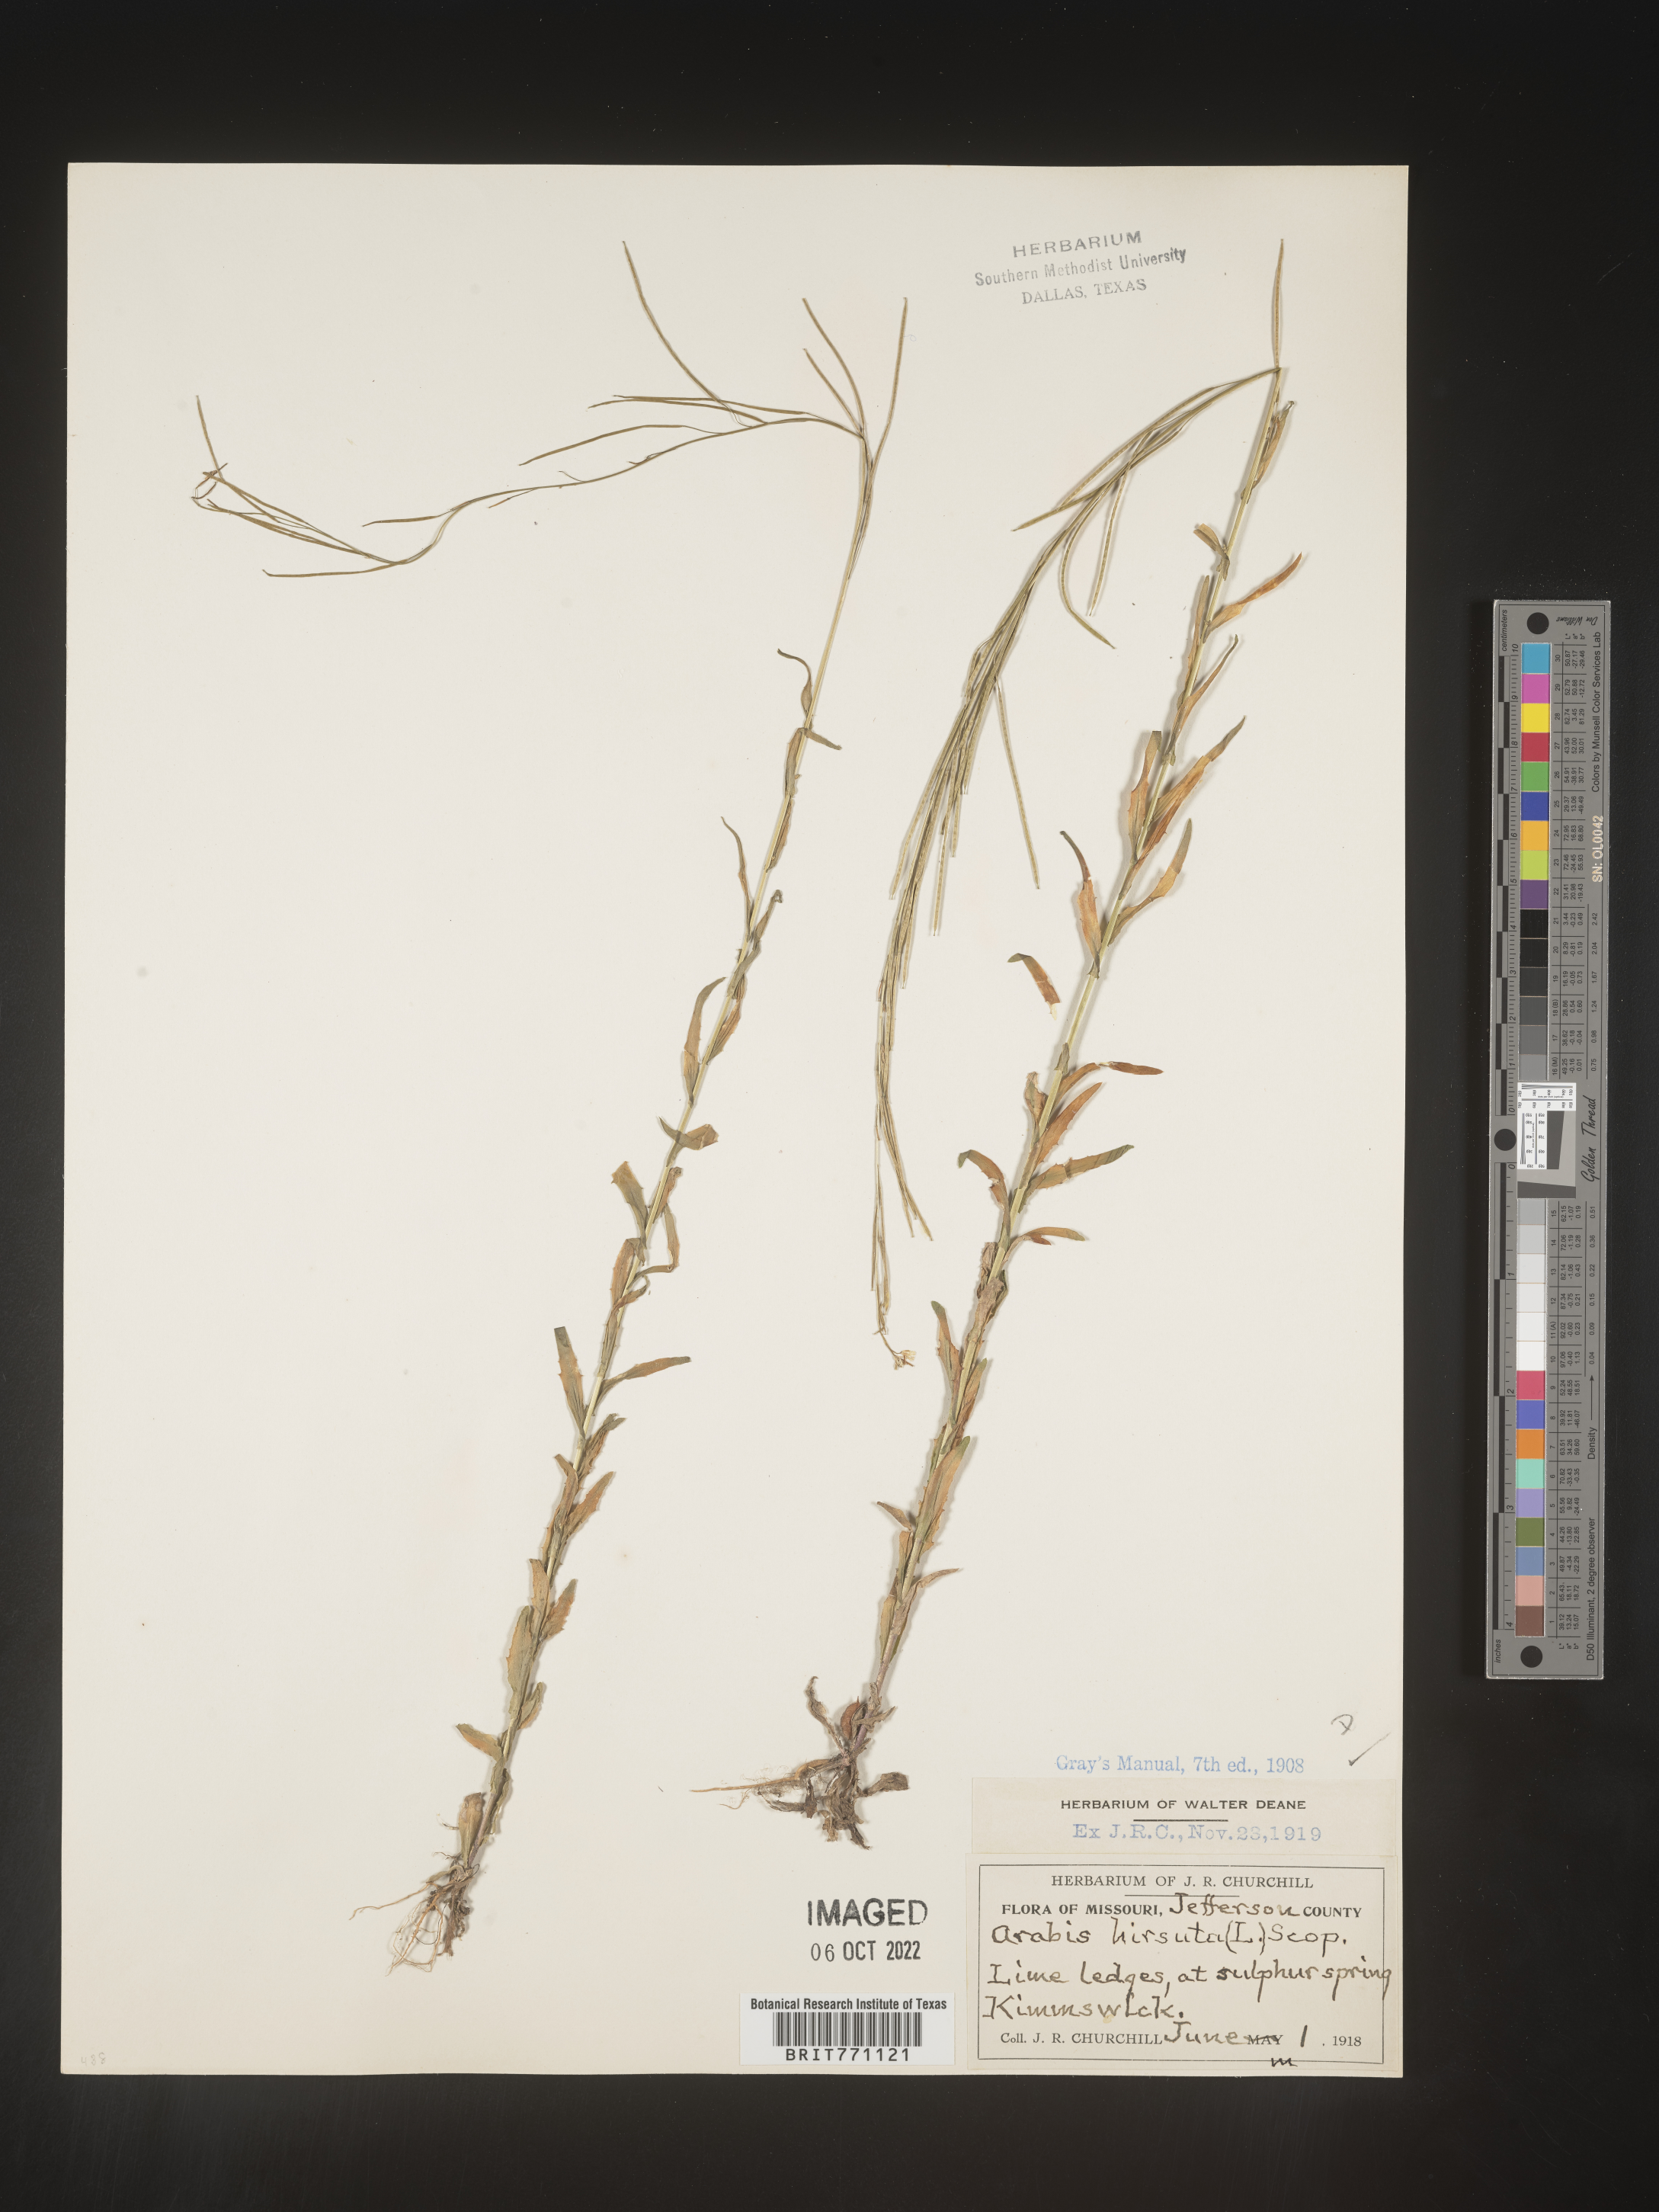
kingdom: Plantae
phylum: Tracheophyta
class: Magnoliopsida
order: Brassicales
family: Brassicaceae
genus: Arabis
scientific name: Arabis hirsuta
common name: Hairy rock-cress
